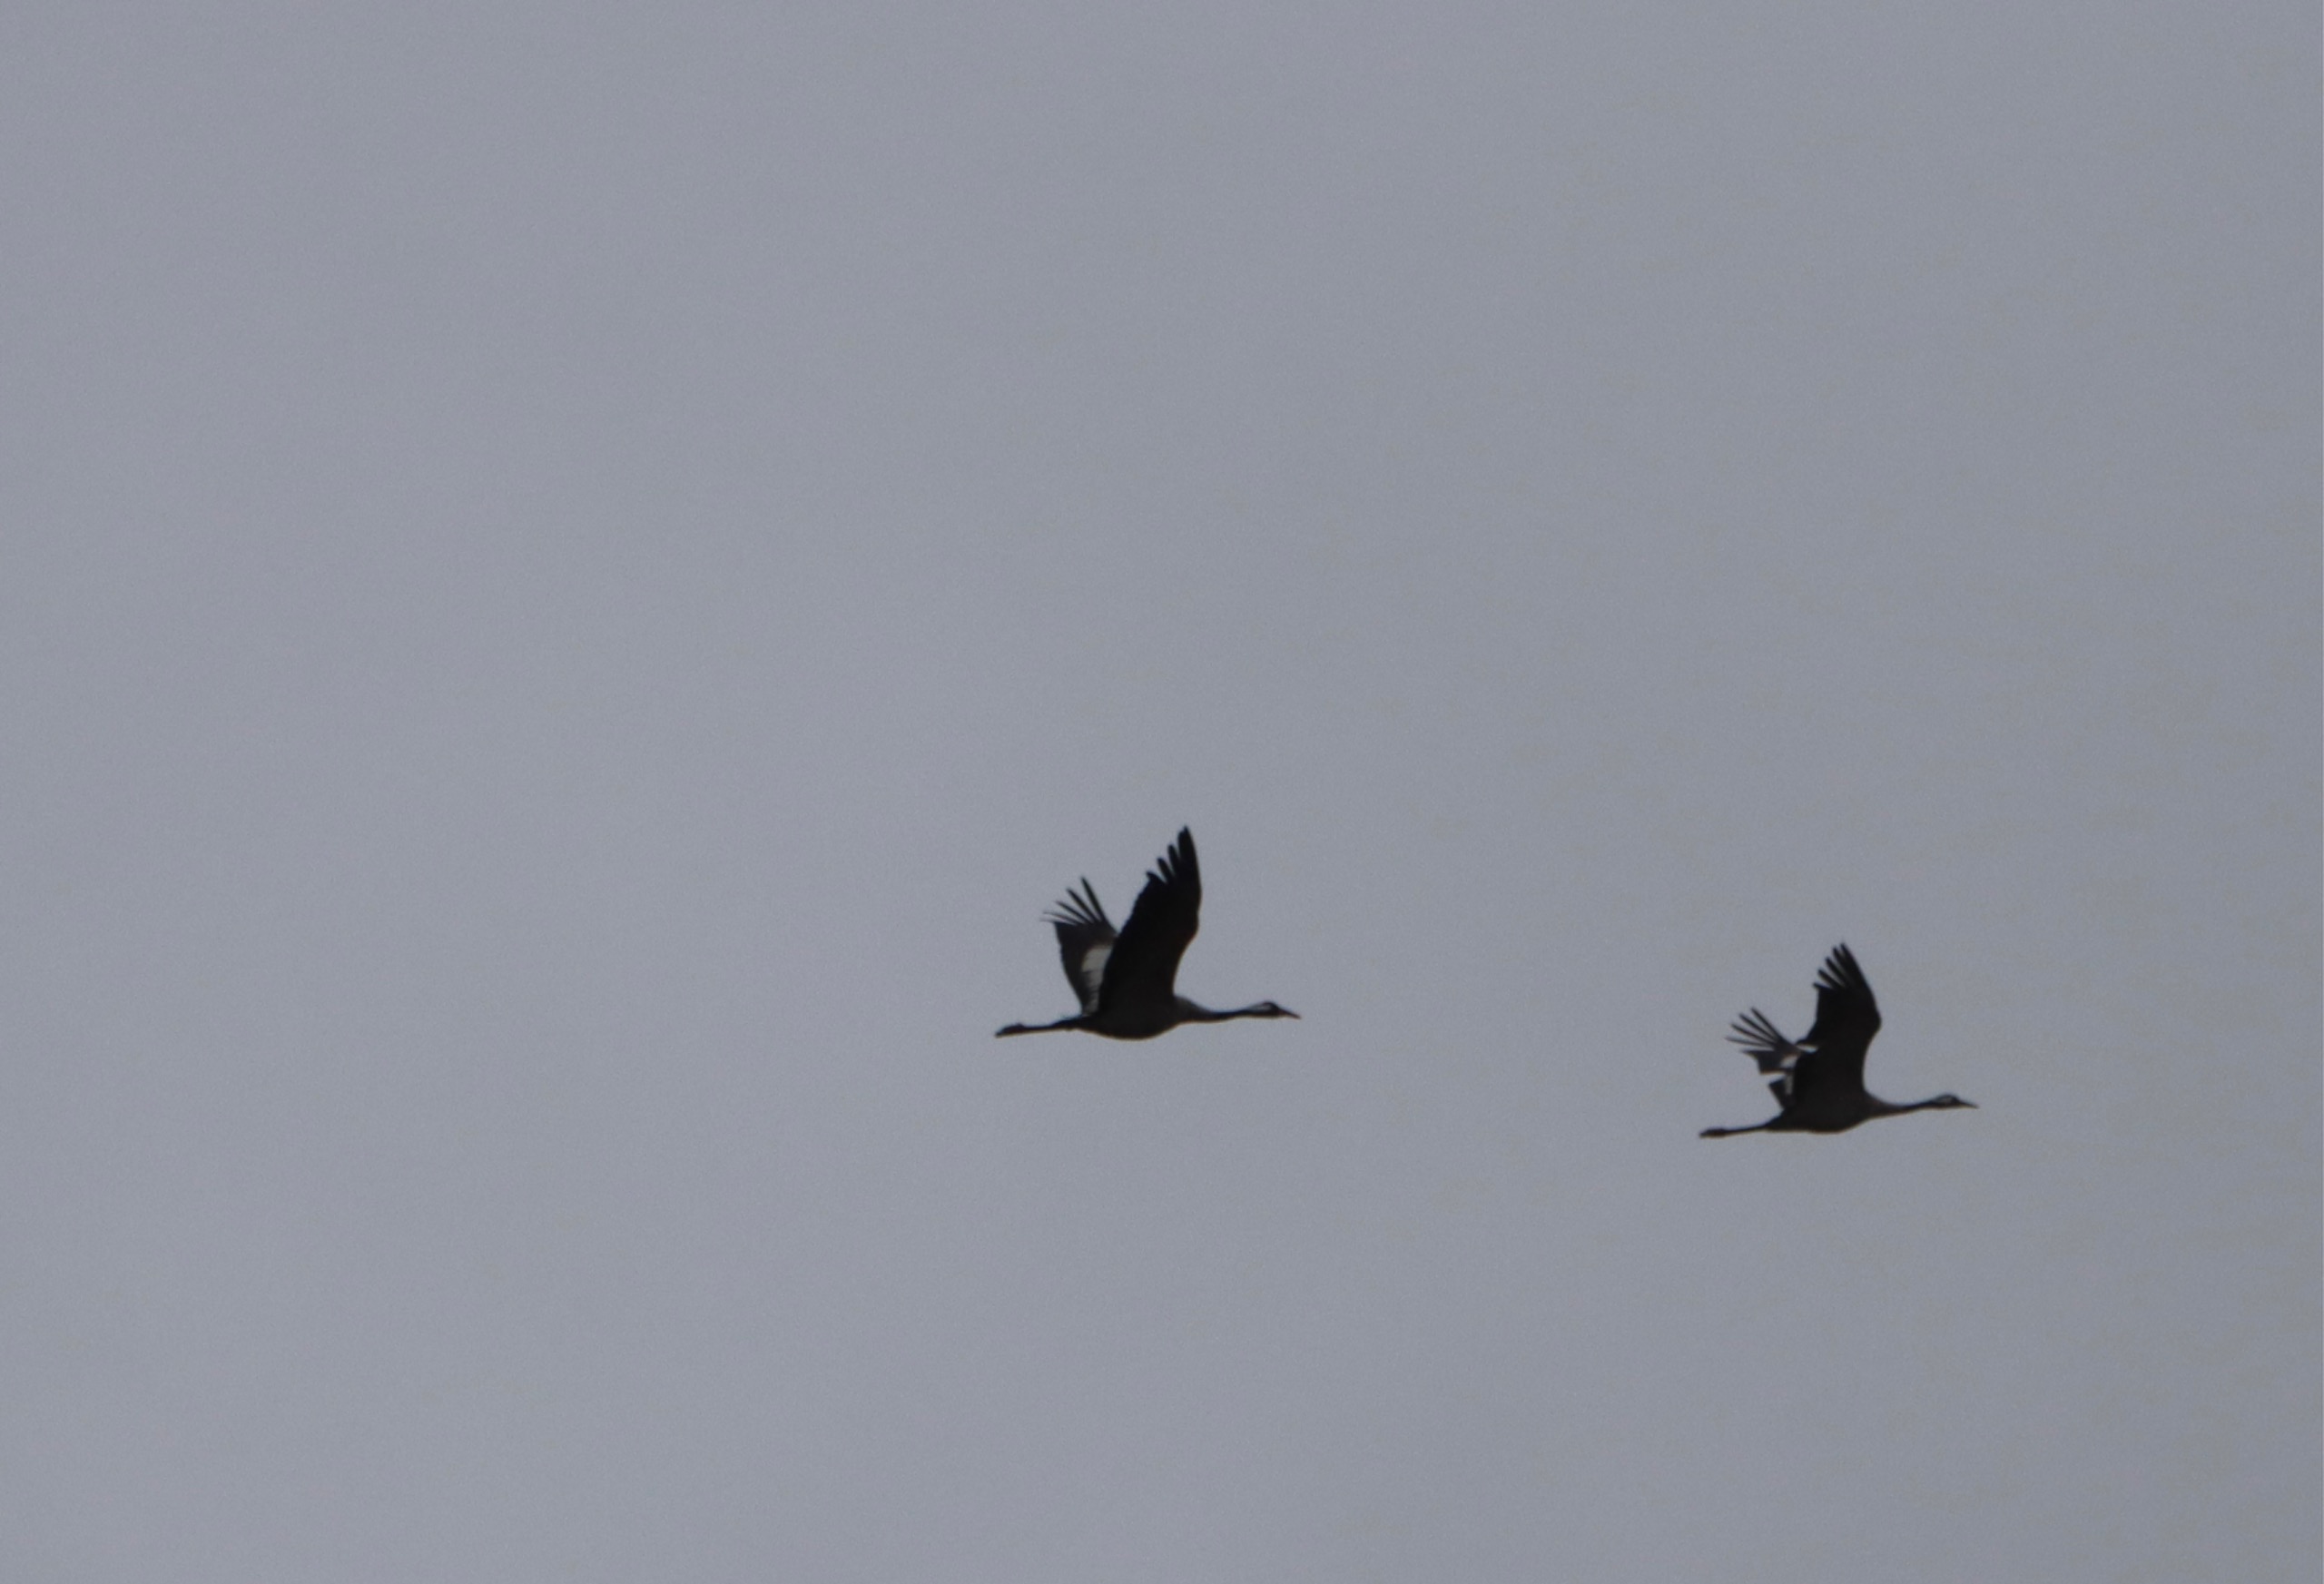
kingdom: Animalia
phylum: Chordata
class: Aves
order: Gruiformes
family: Gruidae
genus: Grus
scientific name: Grus grus
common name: Trane
